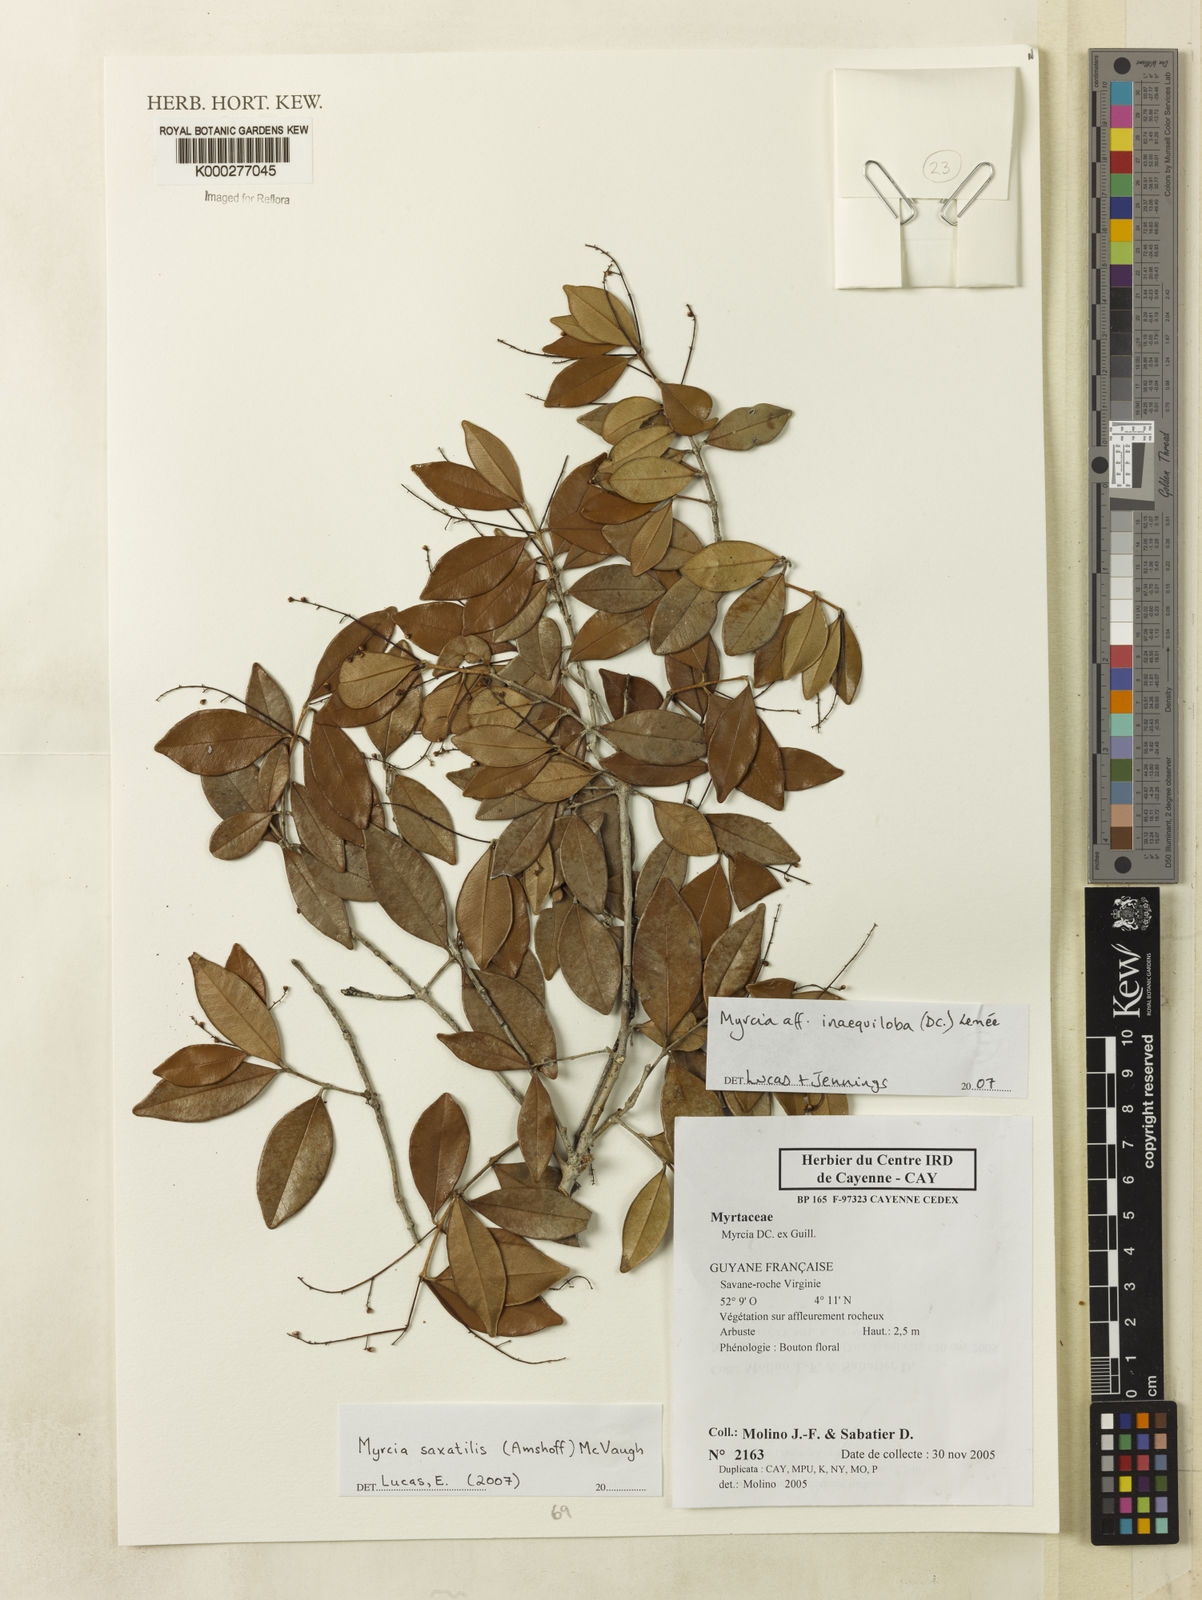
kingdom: Plantae
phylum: Tracheophyta
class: Magnoliopsida
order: Myrtales
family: Myrtaceae
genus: Myrcia
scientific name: Myrcia inaequiloba
